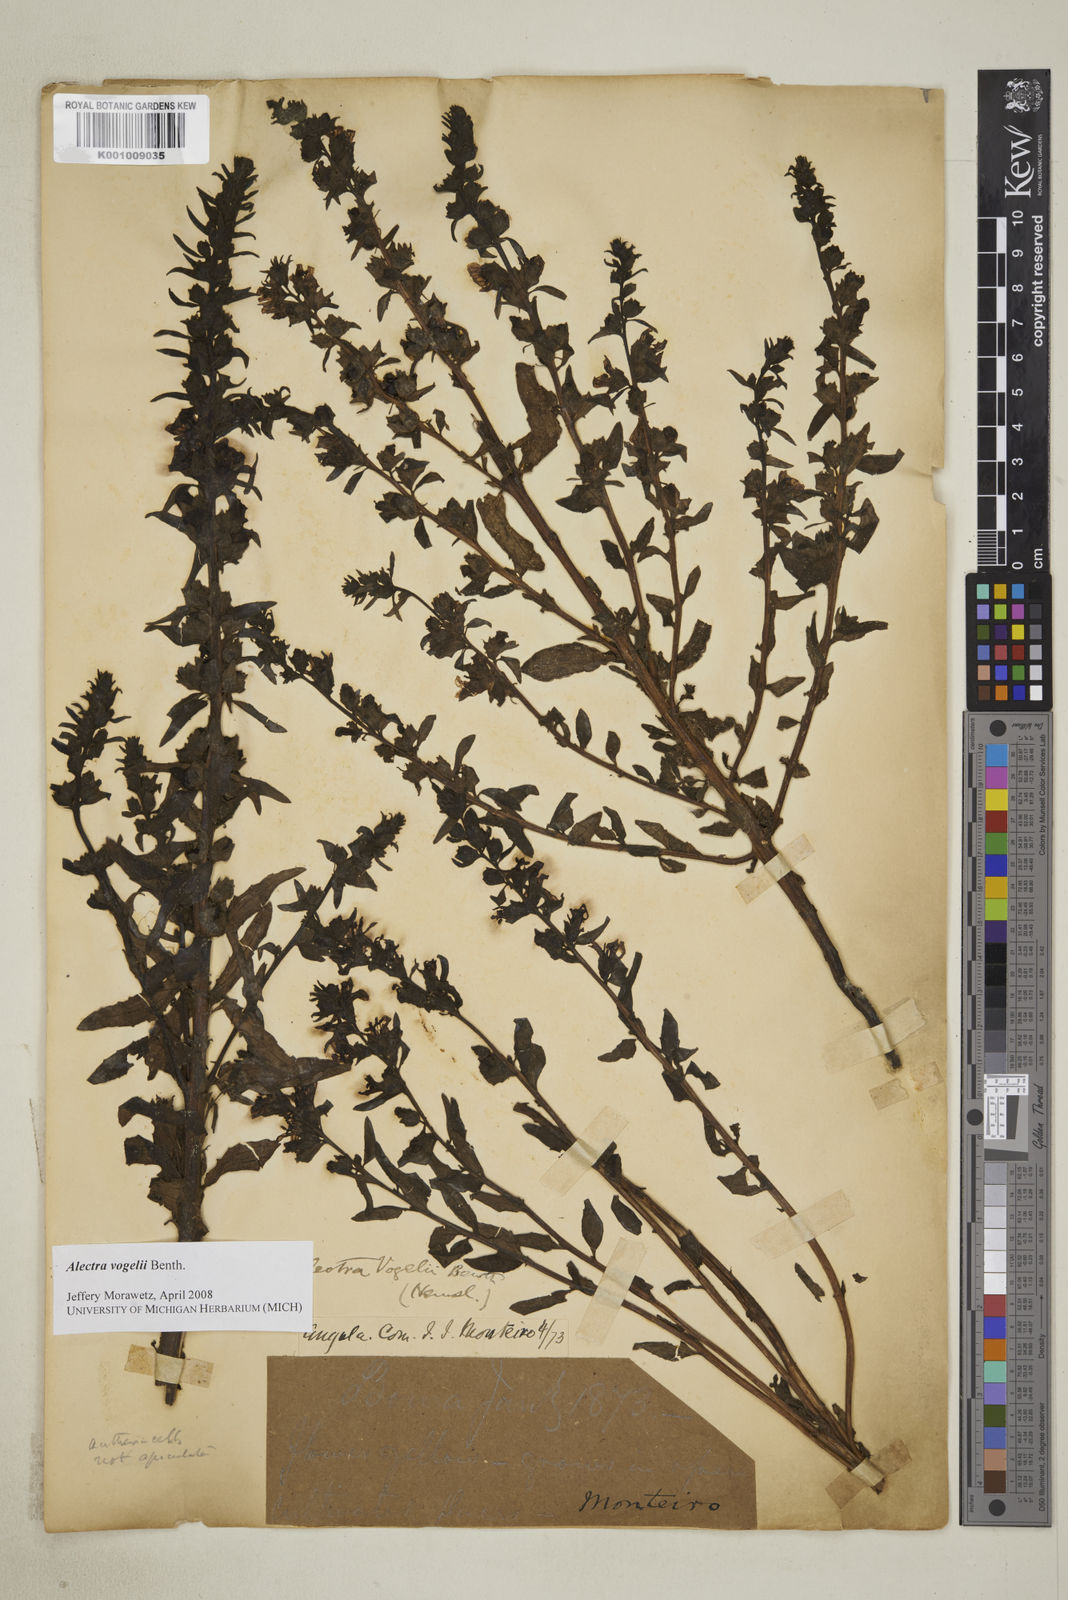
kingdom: Plantae
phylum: Tracheophyta
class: Magnoliopsida
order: Lamiales
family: Orobanchaceae
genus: Alectra
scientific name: Alectra vogelii
